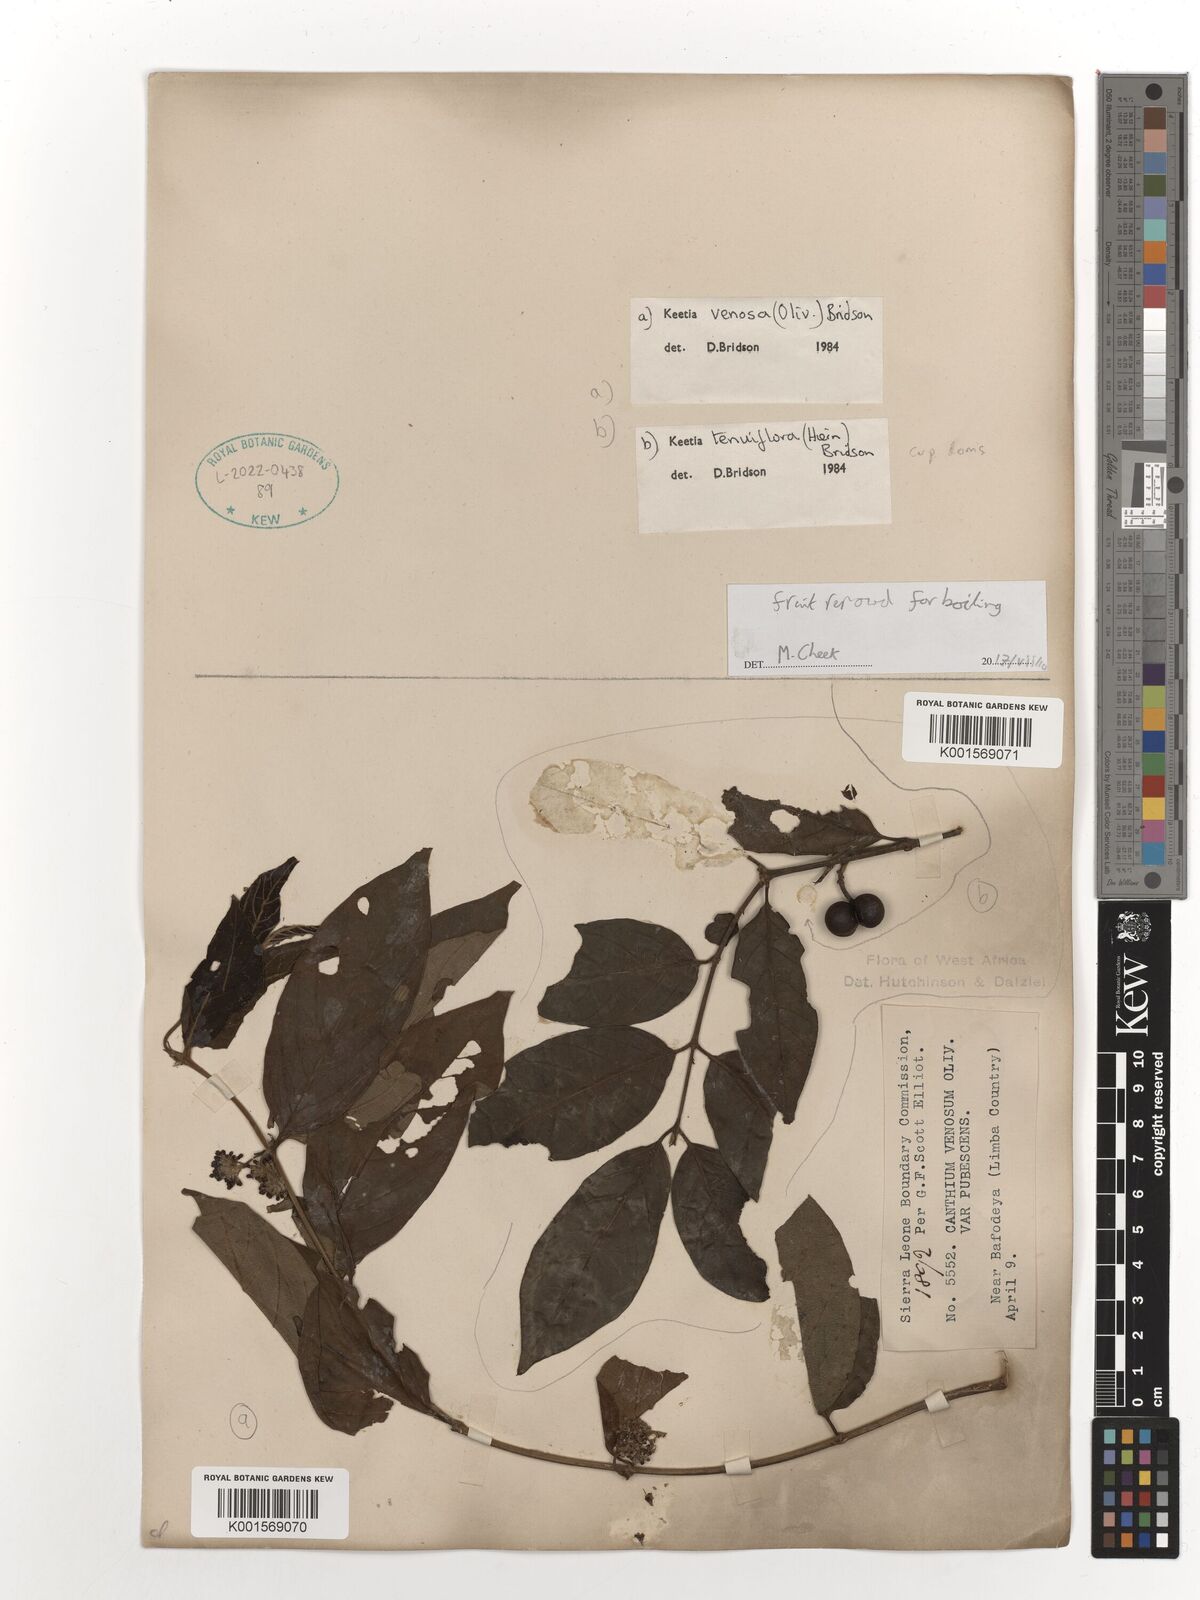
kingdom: Plantae
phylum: Tracheophyta
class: Magnoliopsida
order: Gentianales
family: Rubiaceae
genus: Keetia
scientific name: Keetia venosa
